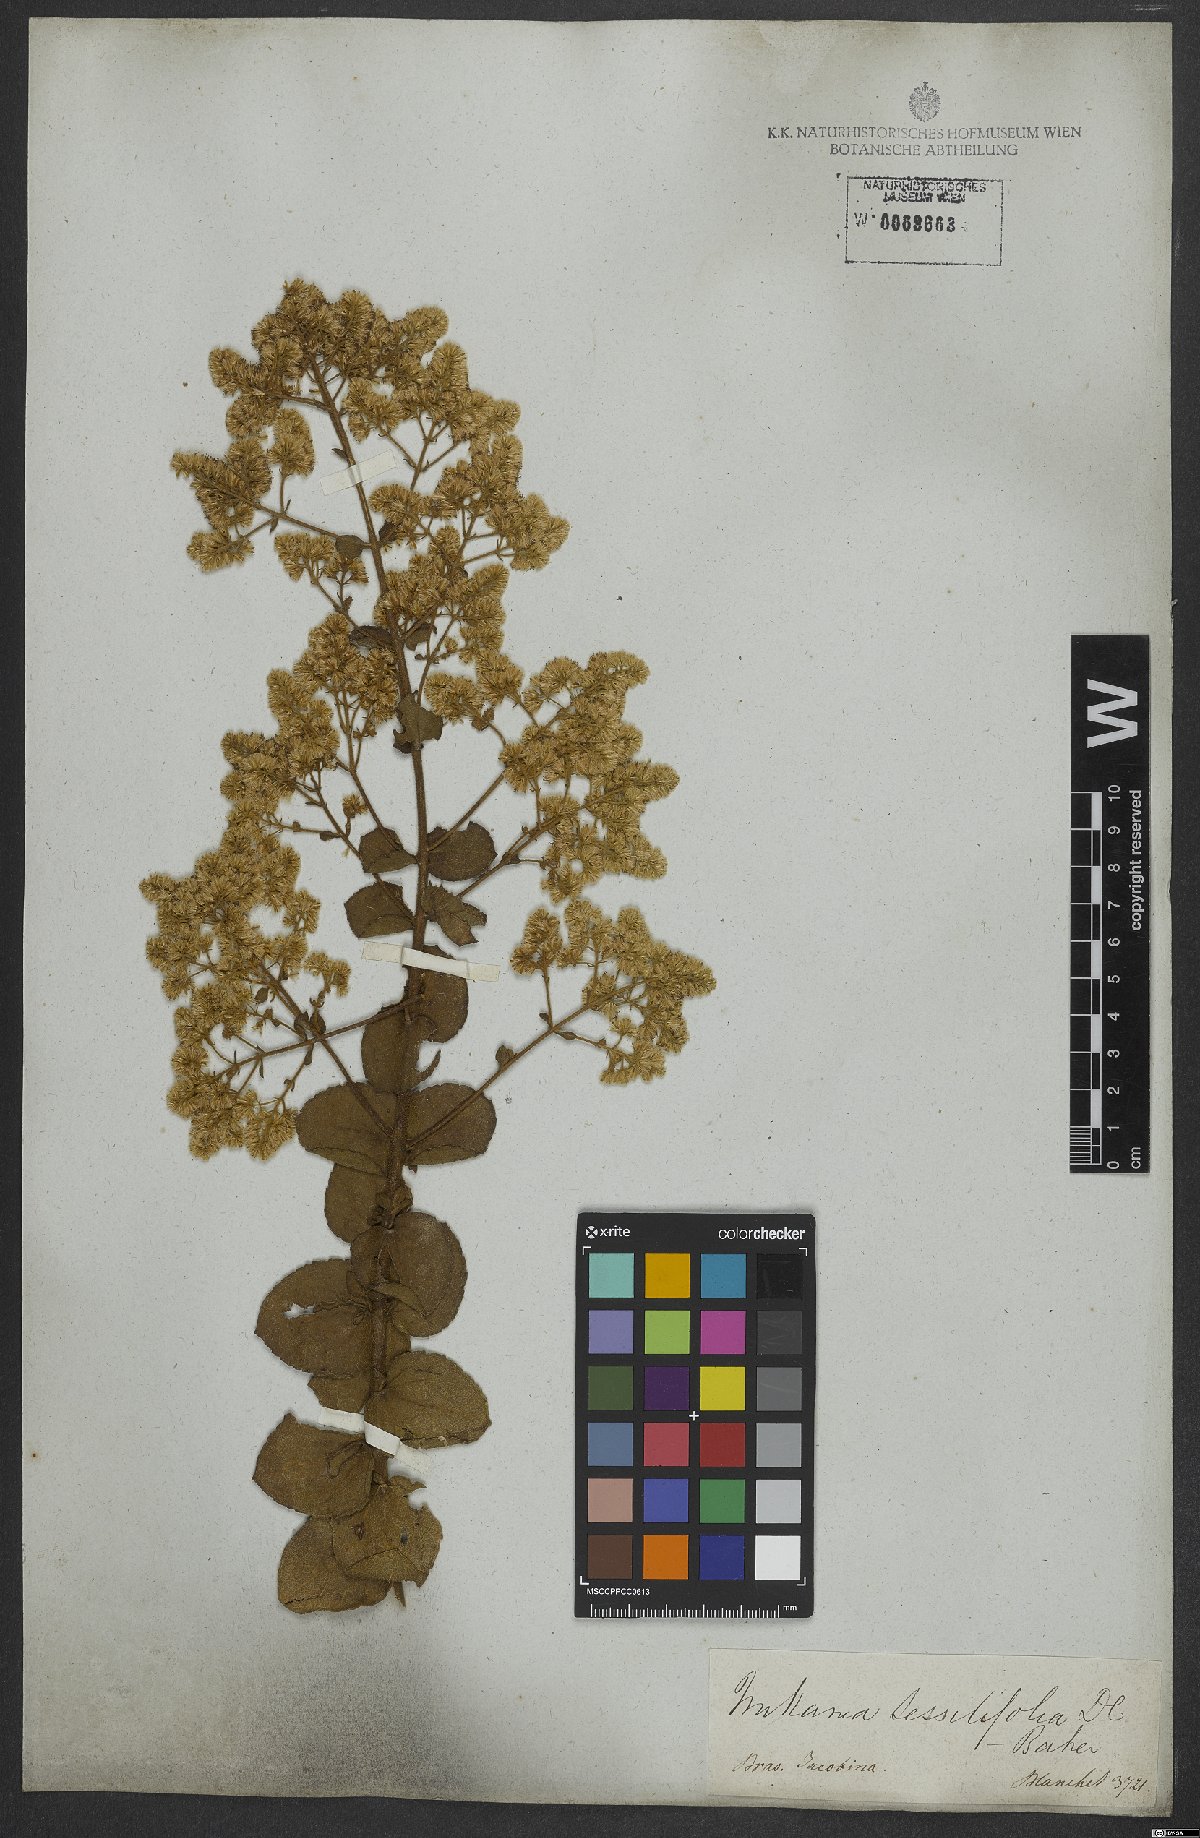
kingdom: Plantae
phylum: Tracheophyta
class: Magnoliopsida
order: Asterales
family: Asteraceae
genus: Mikania
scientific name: Mikania sessilifolia
